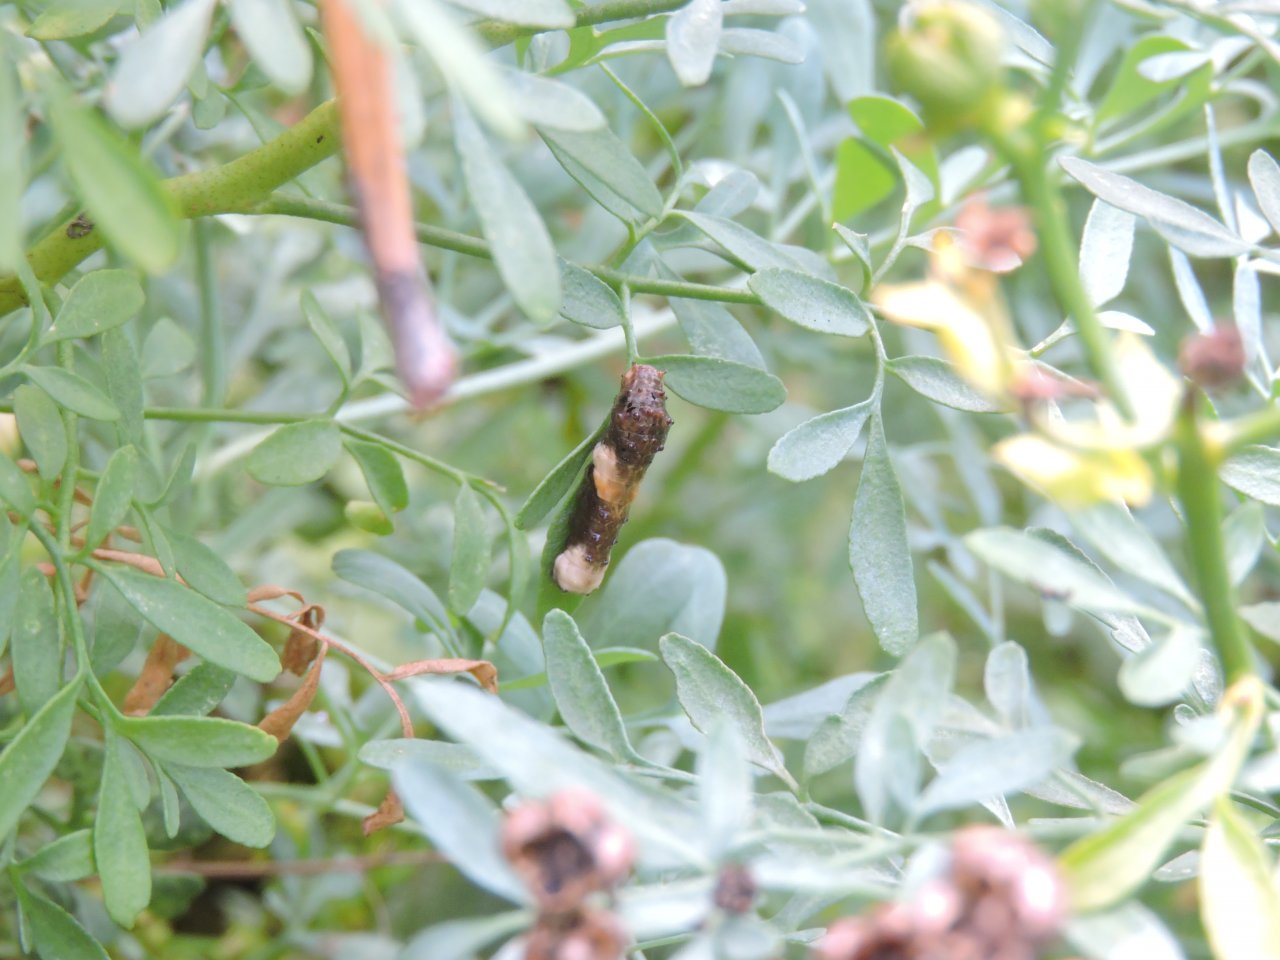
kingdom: Animalia
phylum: Arthropoda
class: Insecta
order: Lepidoptera
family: Papilionidae
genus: Papilio
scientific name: Papilio cresphontes
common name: Eastern Giant Swallowtail
